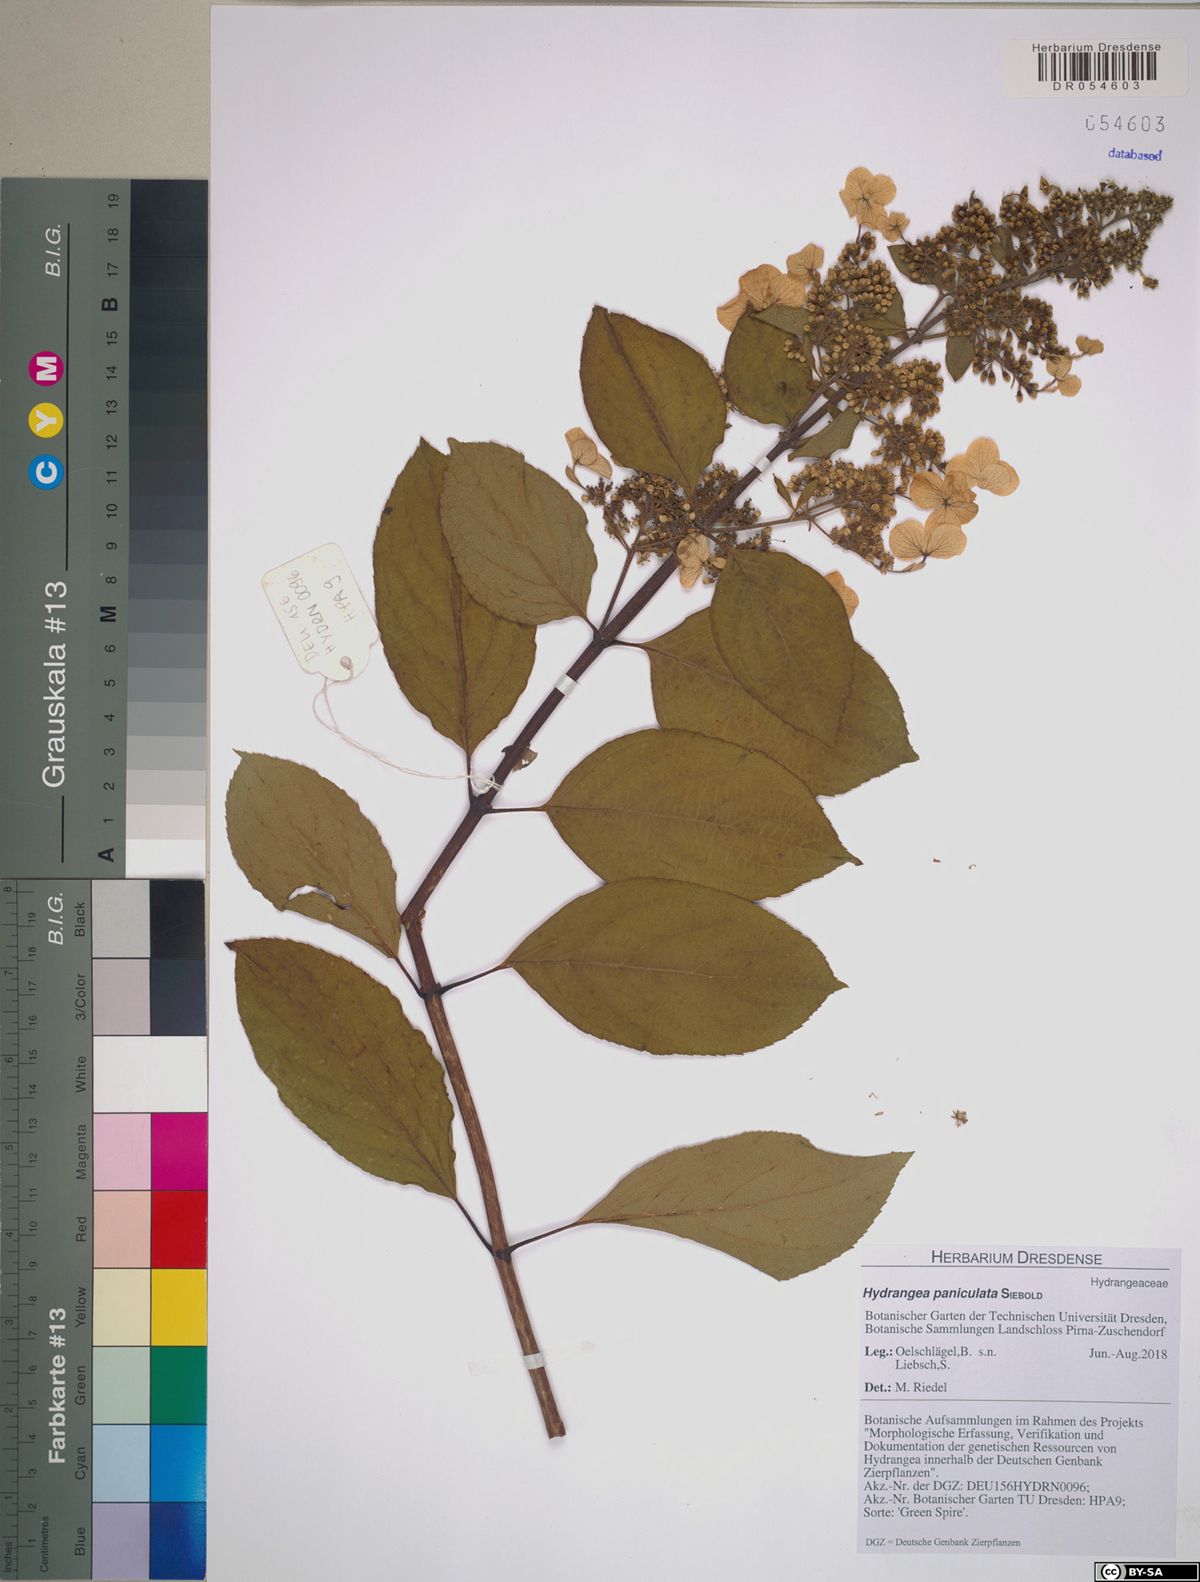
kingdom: Plantae
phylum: Tracheophyta
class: Magnoliopsida
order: Cornales
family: Hydrangeaceae
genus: Hydrangea
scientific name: Hydrangea paniculata
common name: Panicled hydrangea
